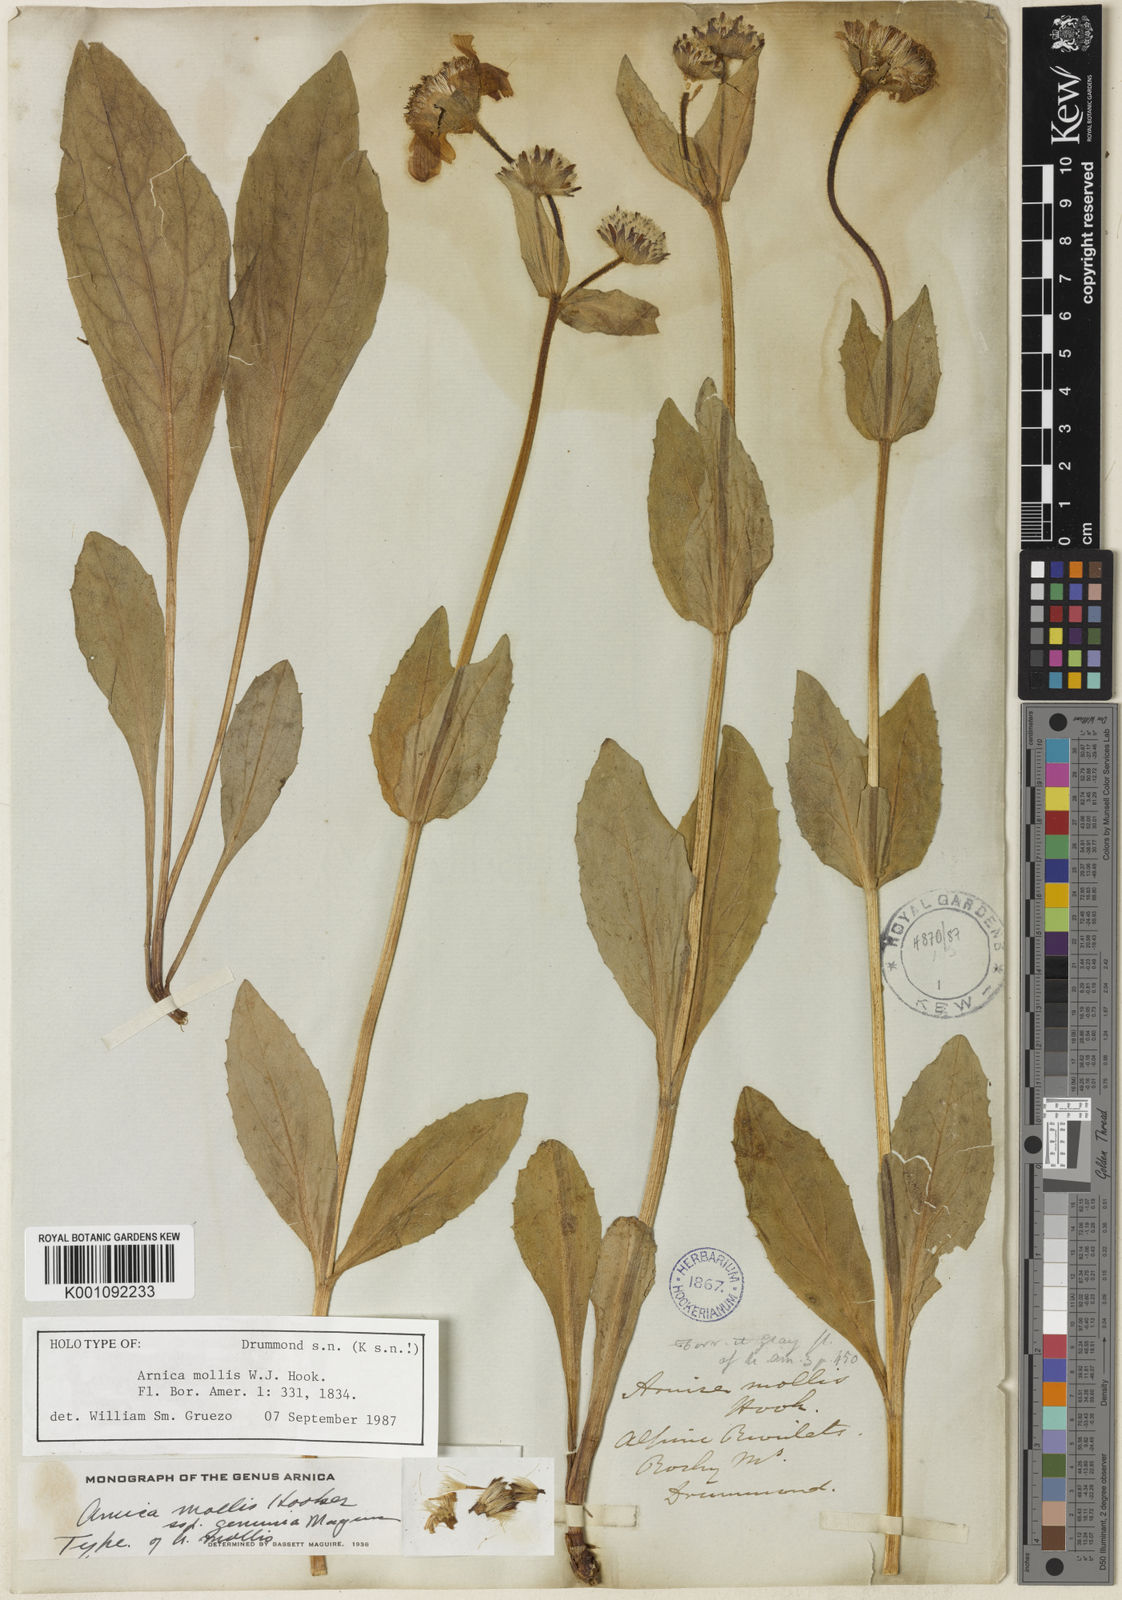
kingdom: Plantae
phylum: Tracheophyta
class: Magnoliopsida
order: Asterales
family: Asteraceae
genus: Arnica
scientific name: Arnica mollis
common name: Hairy arnica
